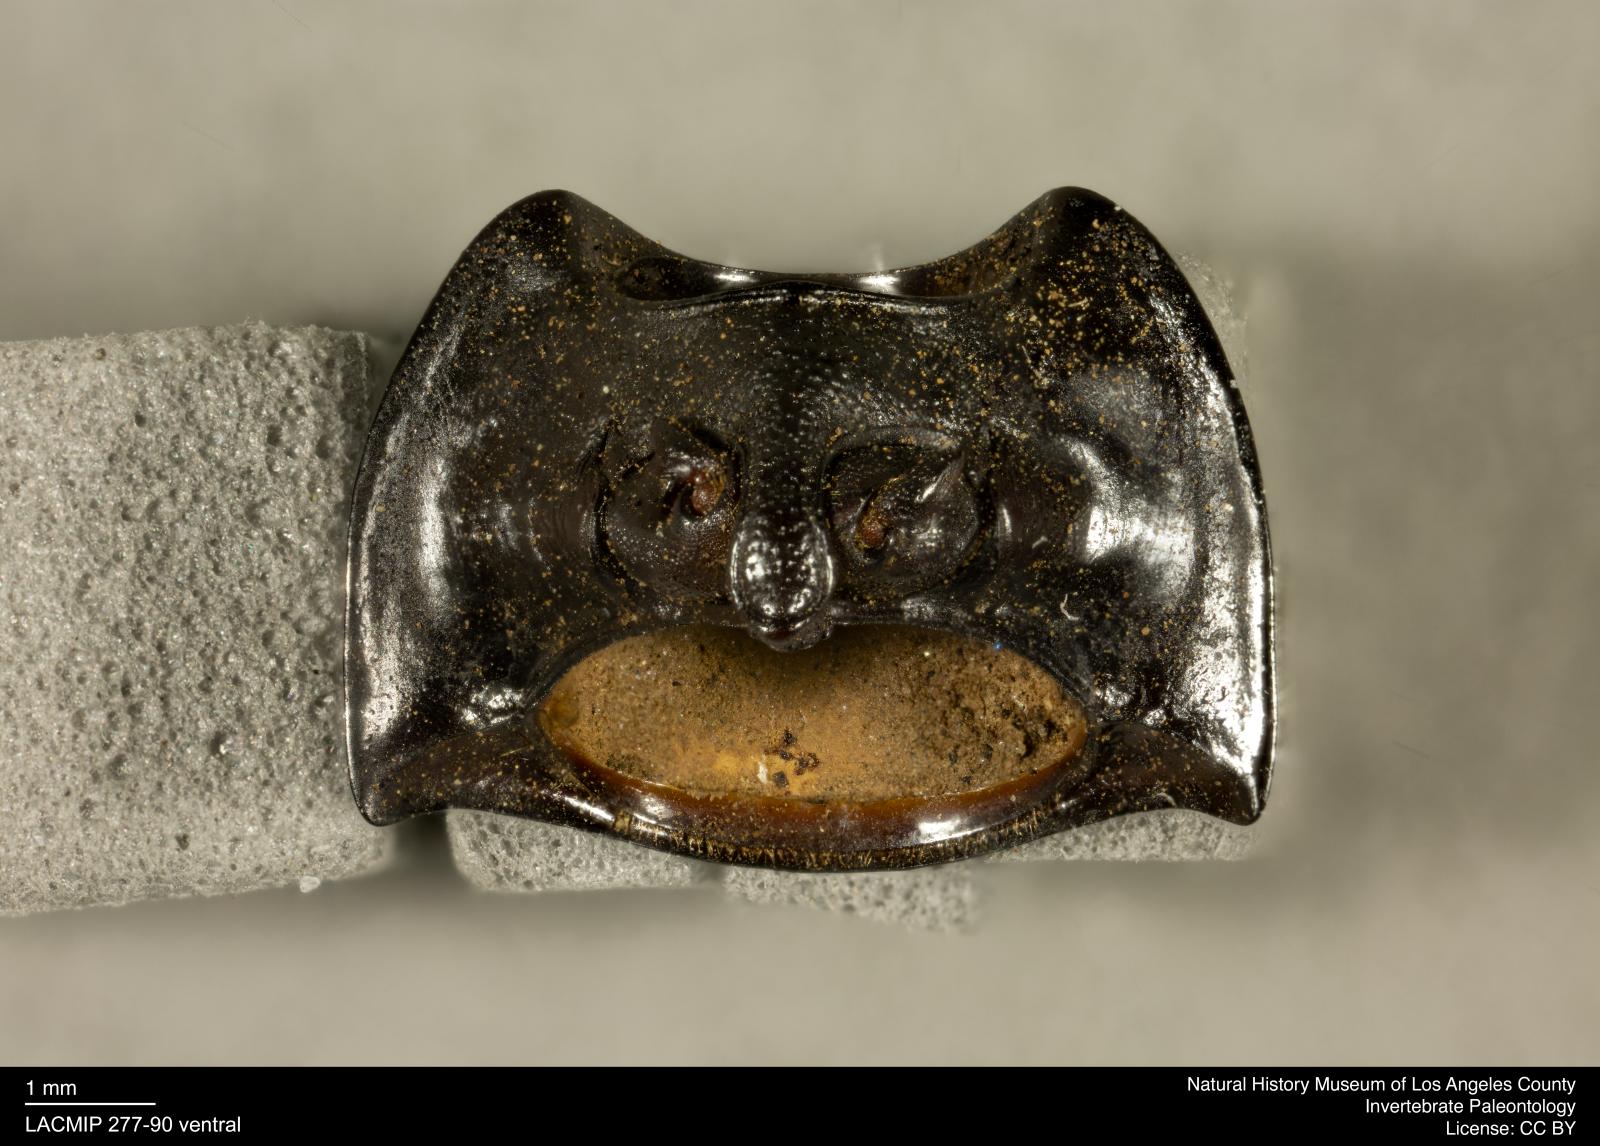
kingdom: Animalia
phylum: Arthropoda
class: Insecta
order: Coleoptera
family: Tenebrionidae
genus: Coniontis
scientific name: Coniontis abdominalis
